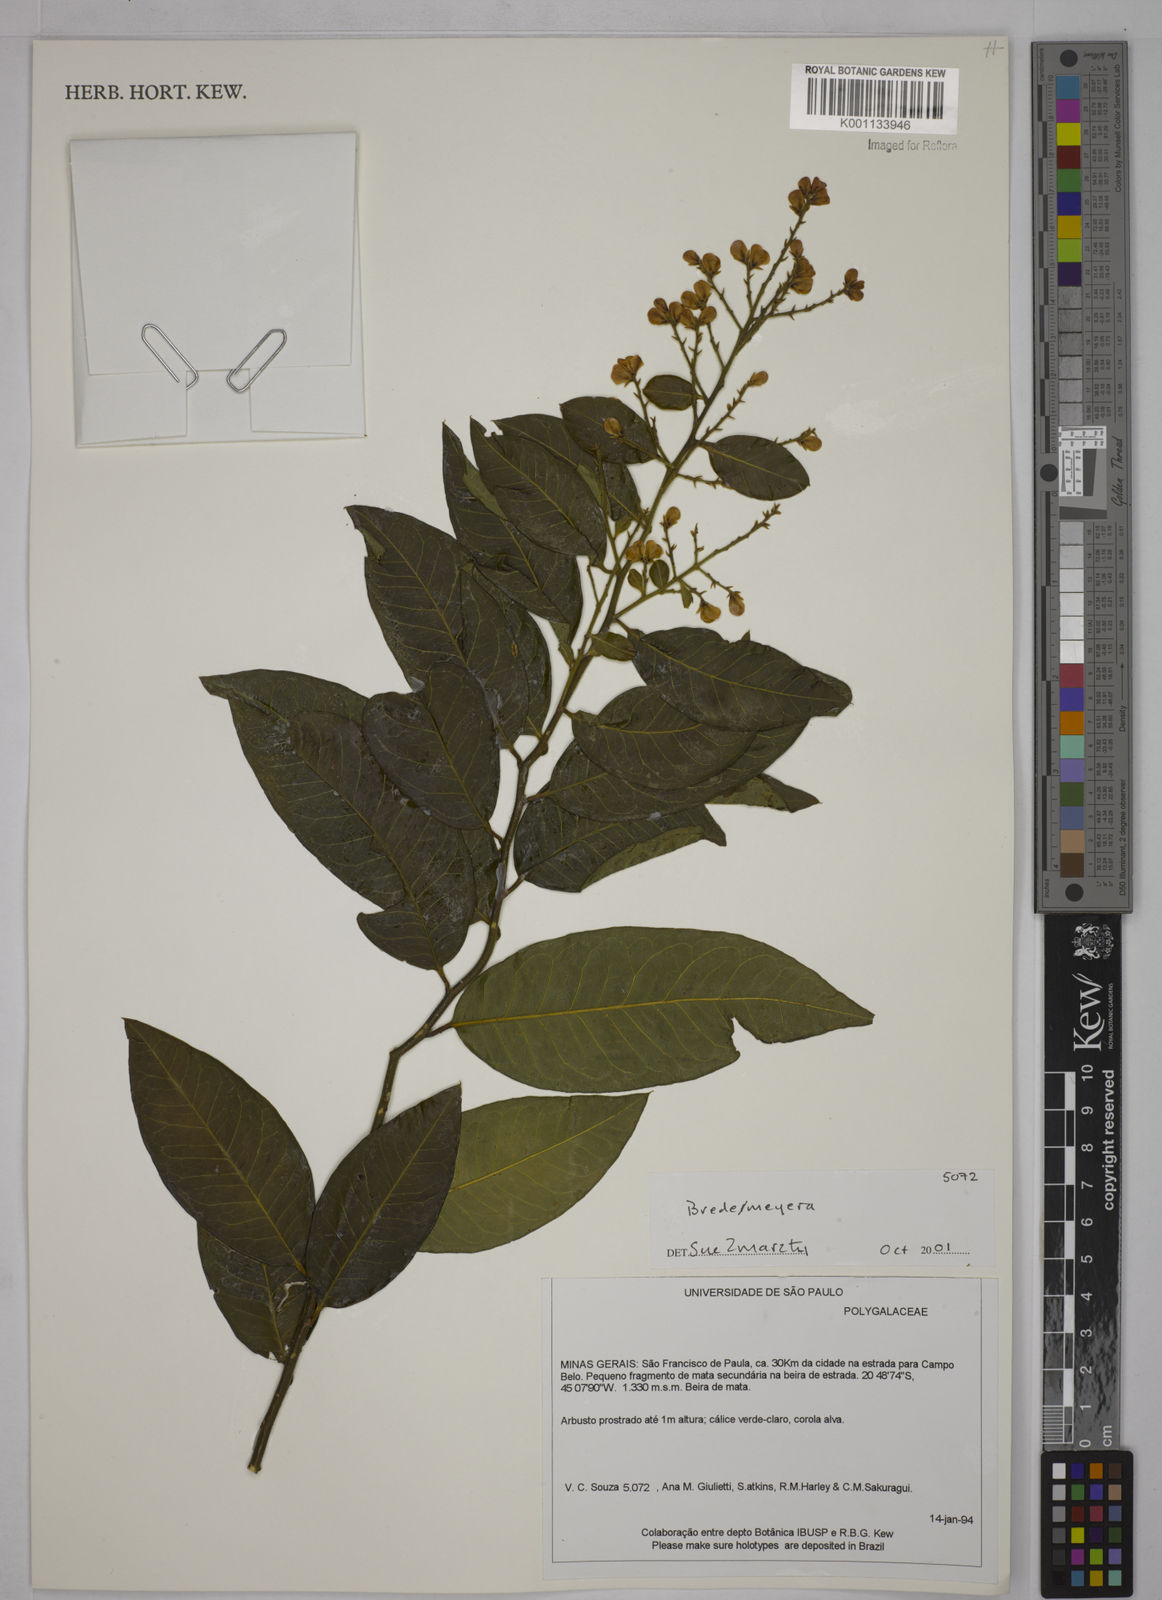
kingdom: Plantae
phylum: Tracheophyta
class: Magnoliopsida
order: Fabales
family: Polygalaceae
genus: Bredemeyera
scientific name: Bredemeyera
